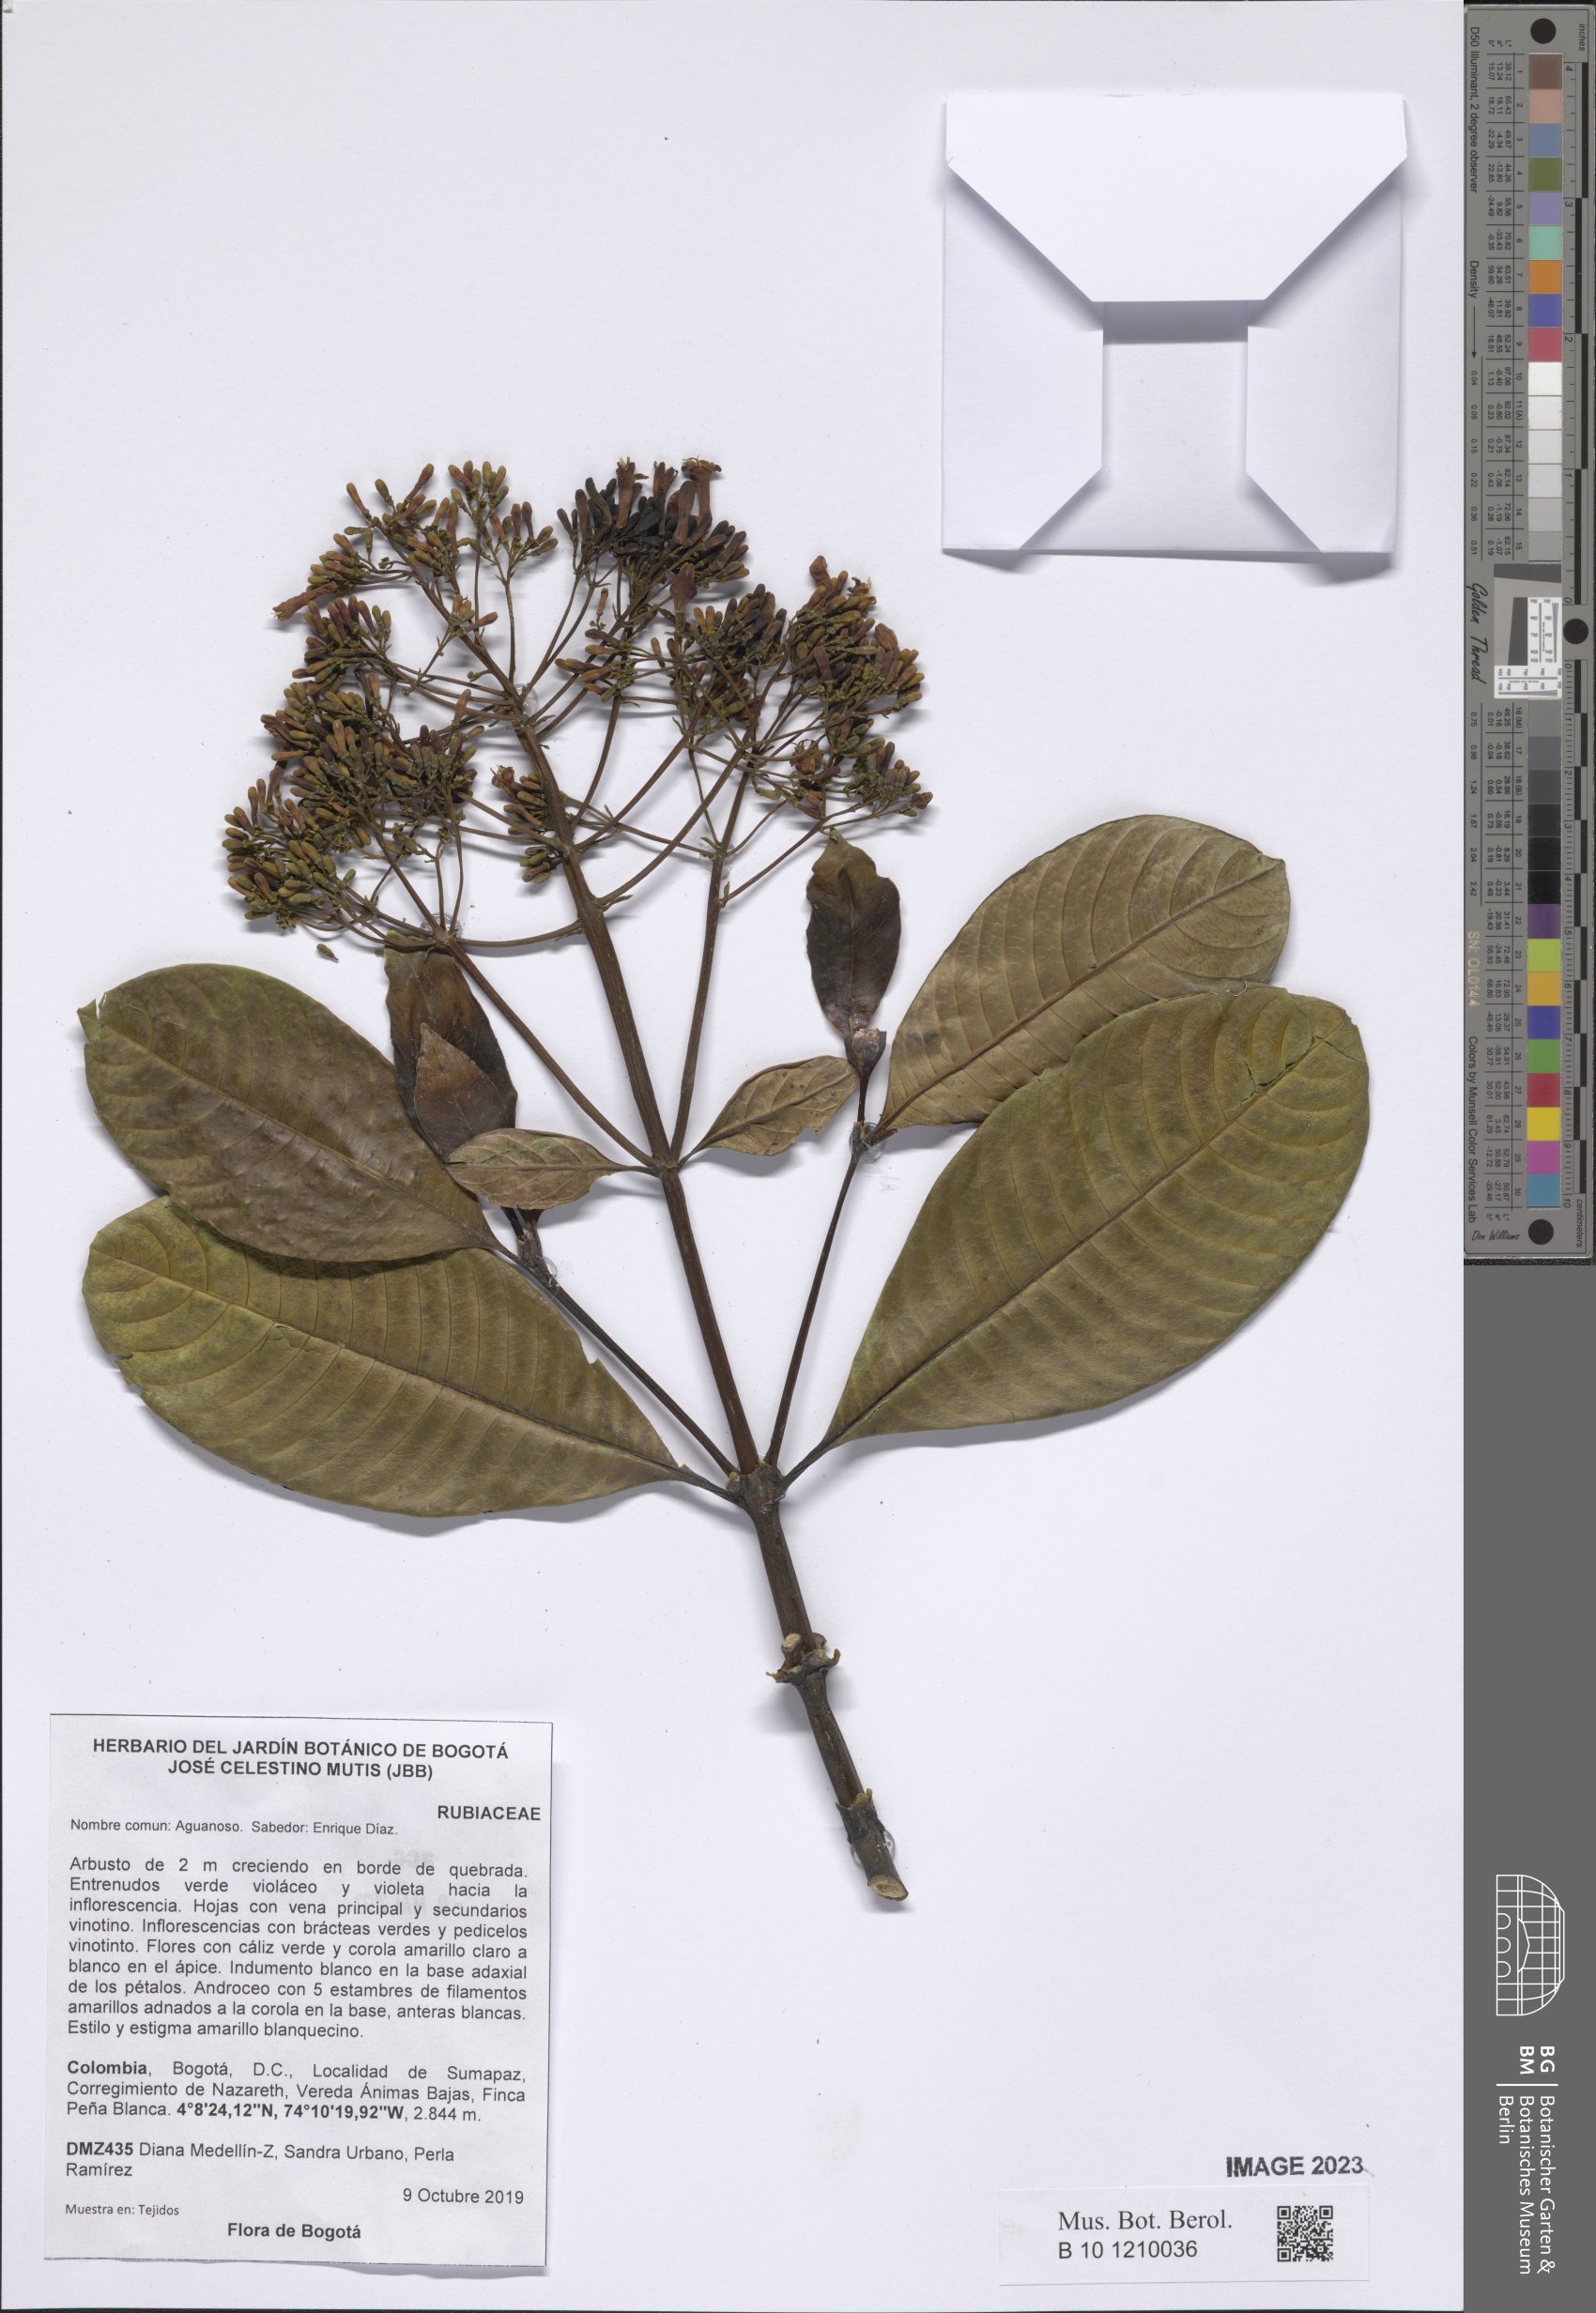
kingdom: Plantae
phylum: Tracheophyta
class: Magnoliopsida
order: Gentianales
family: Rubiaceae
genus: Palicourea
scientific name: Palicourea sulphurea
